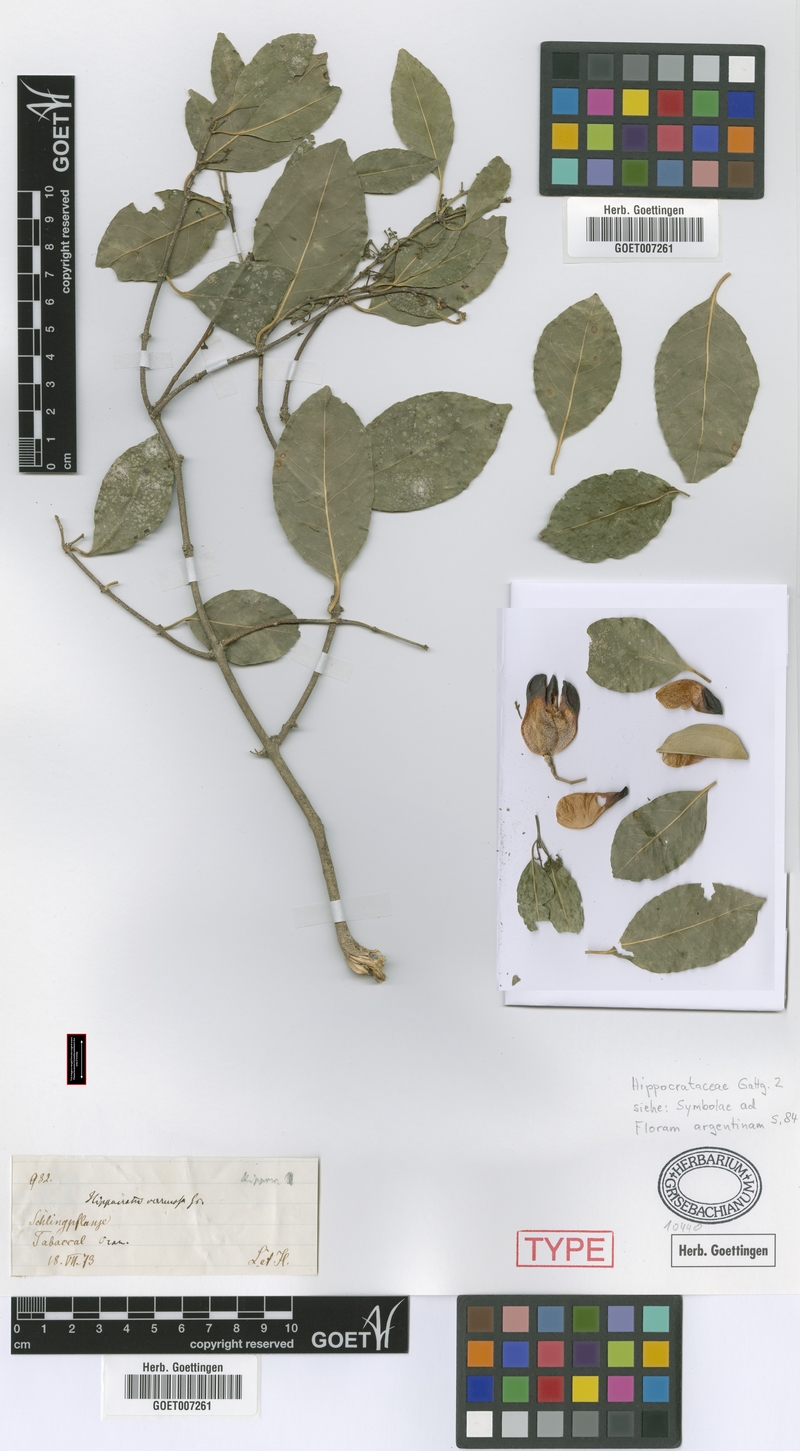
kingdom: Plantae
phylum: Tracheophyta
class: Magnoliopsida
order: Celastrales
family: Celastraceae
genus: Pristimera
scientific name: Pristimera celastroides
